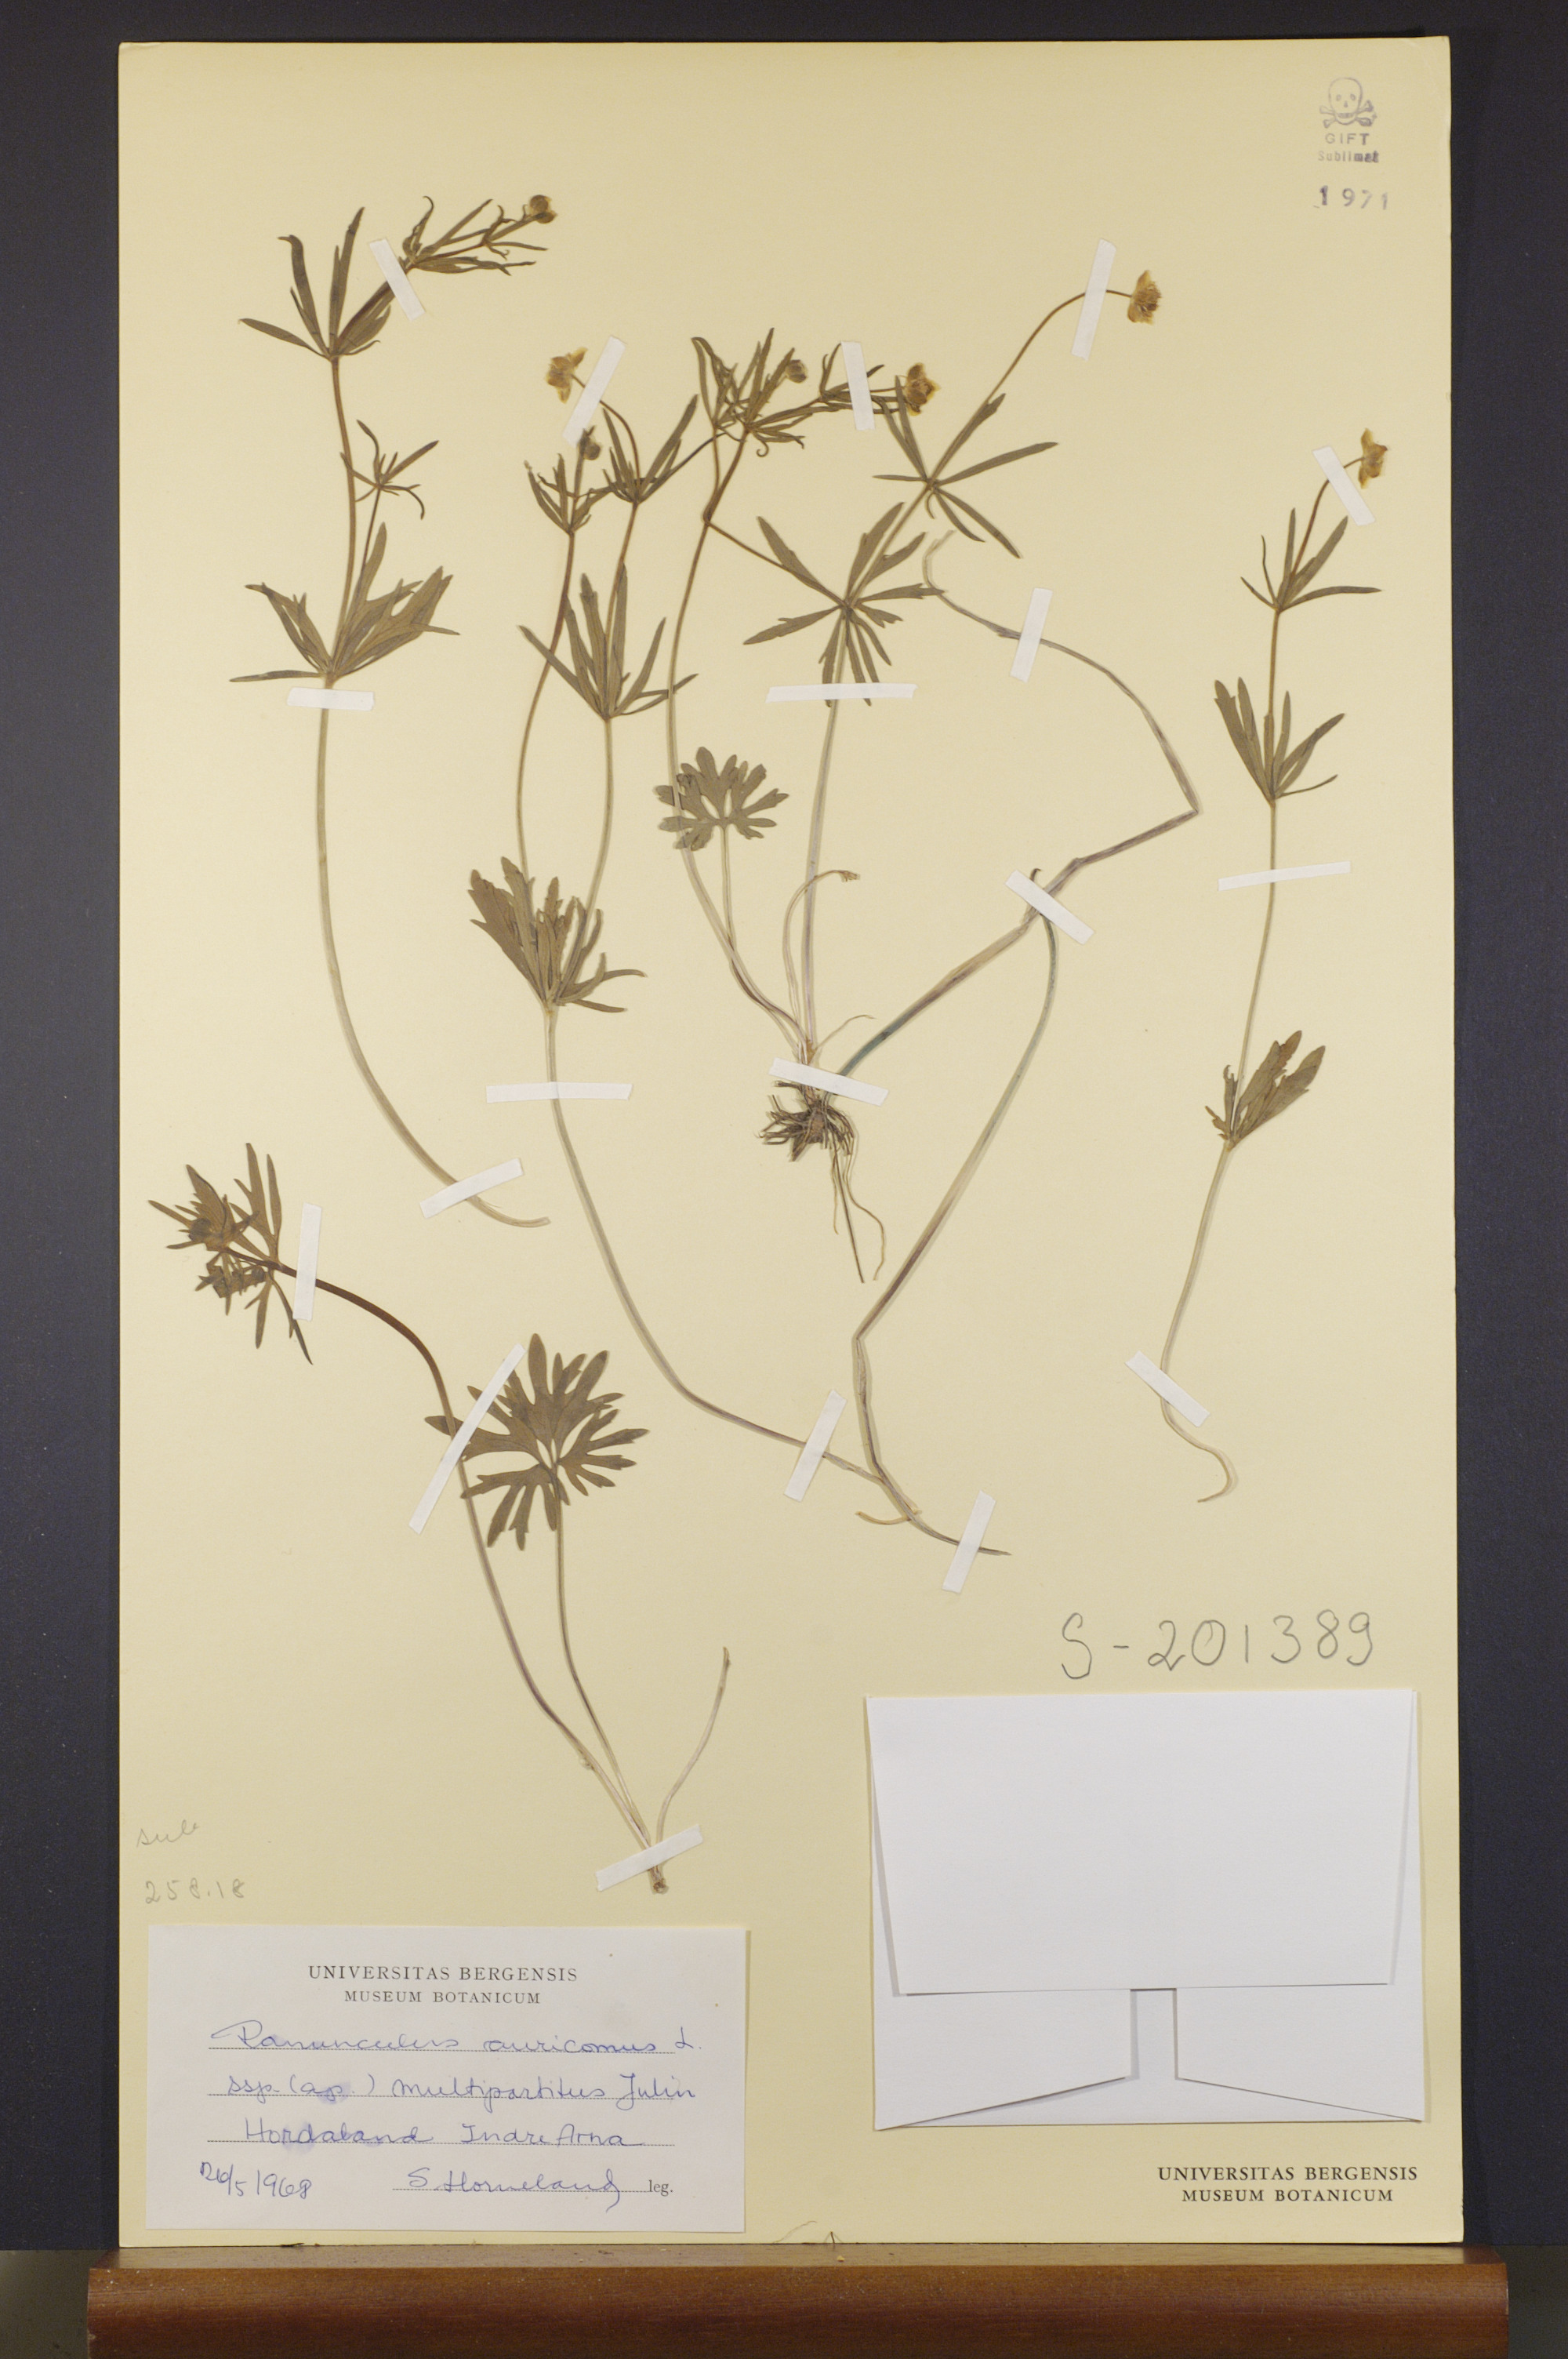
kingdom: Plantae
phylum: Tracheophyta
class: Magnoliopsida
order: Ranunculales
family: Ranunculaceae
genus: Ranunculus
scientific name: Ranunculus multipartitus
